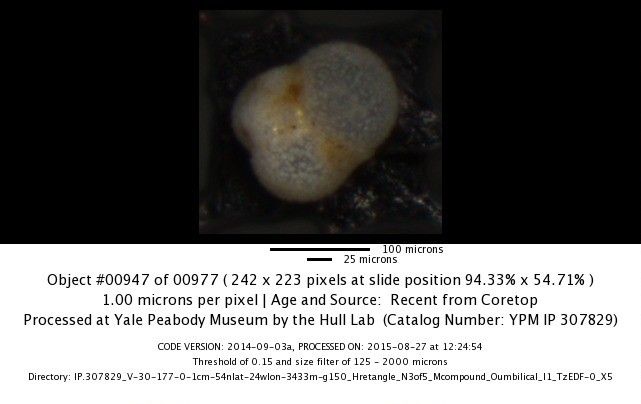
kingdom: Chromista
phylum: Foraminifera
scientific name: Foraminifera
